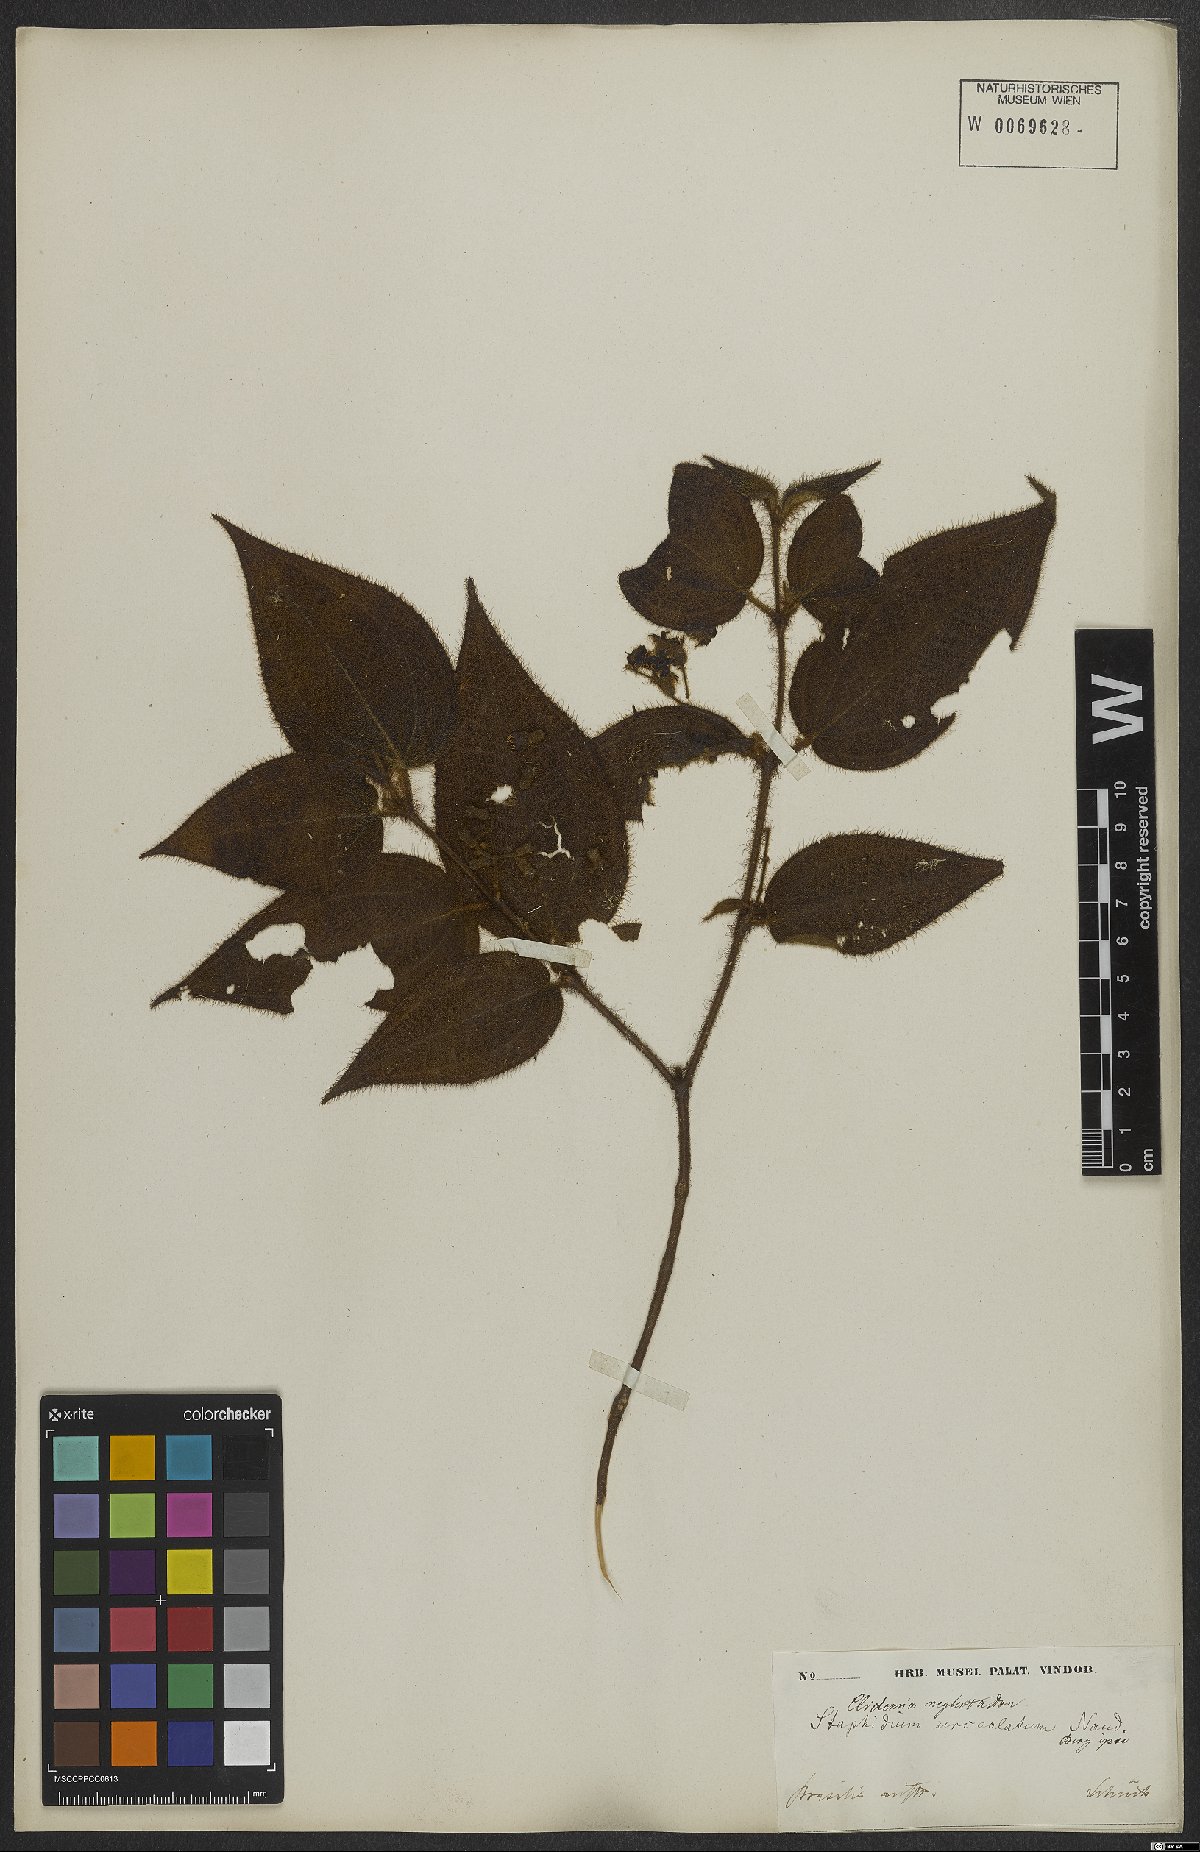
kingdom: Plantae
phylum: Tracheophyta
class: Magnoliopsida
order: Myrtales
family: Melastomataceae
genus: Miconia
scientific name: Miconia dependens
